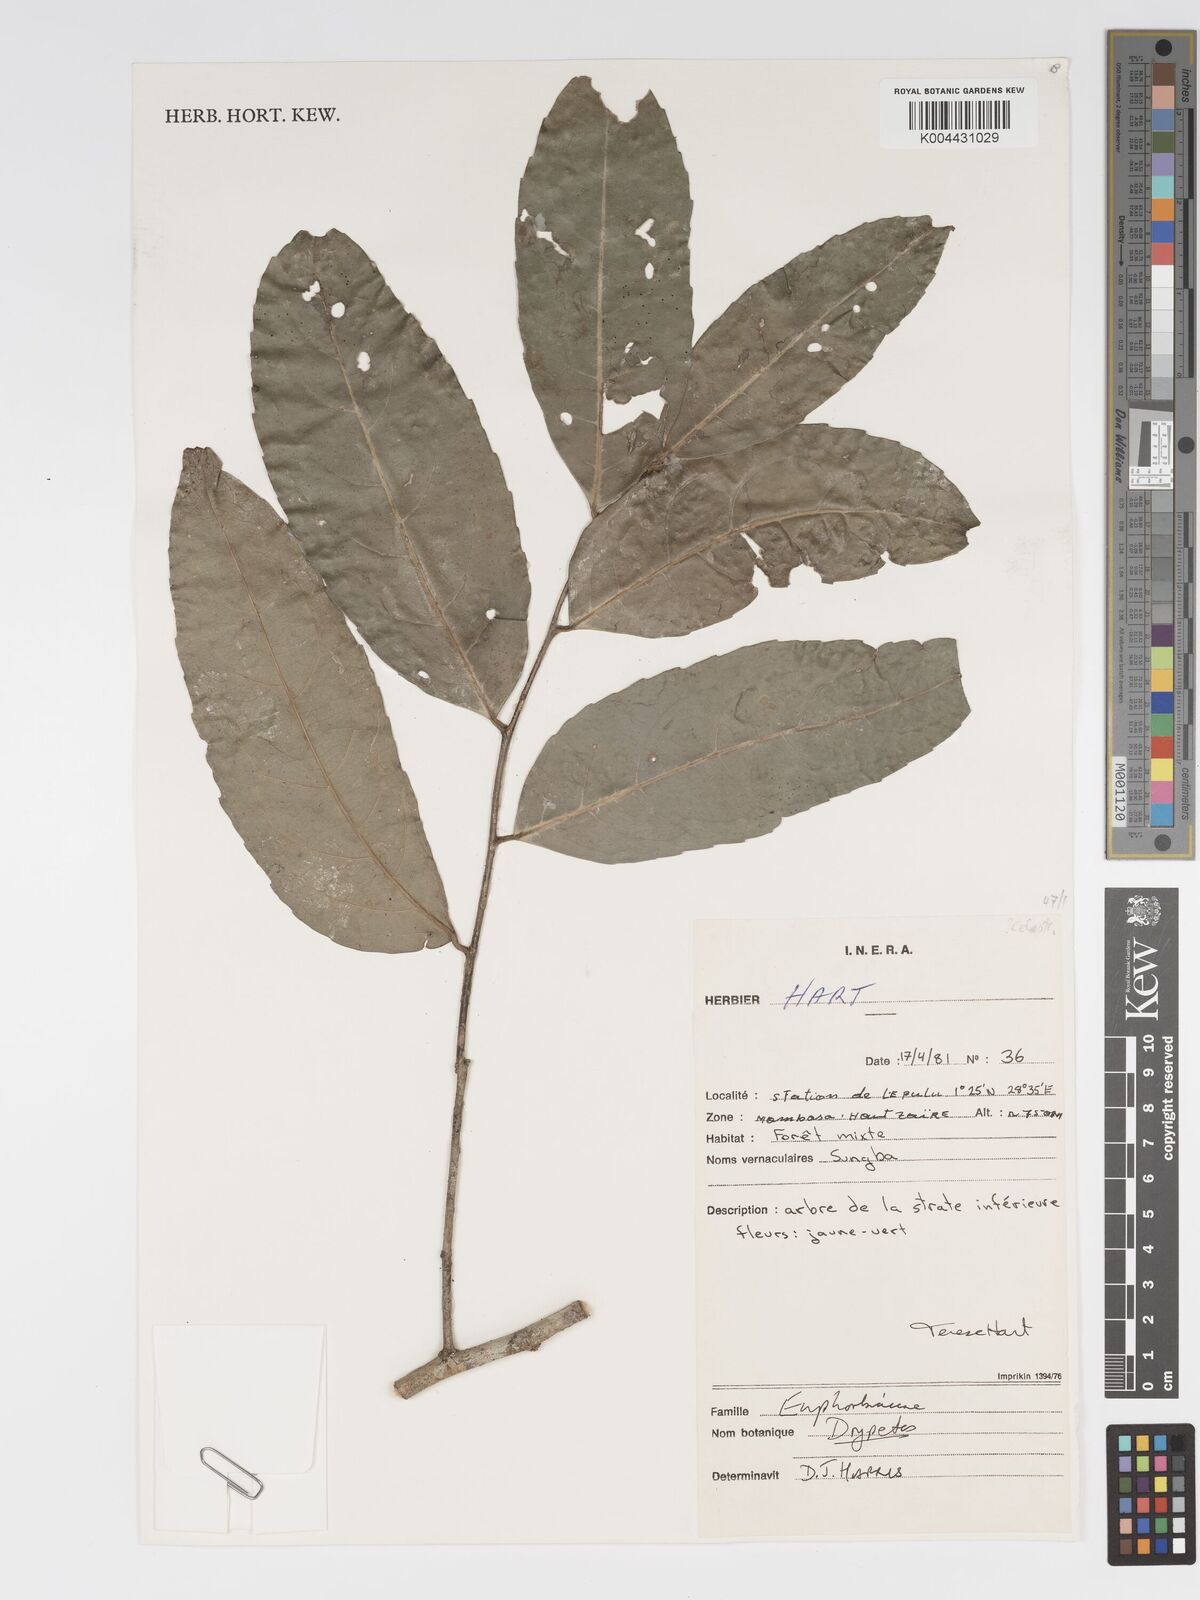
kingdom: Plantae
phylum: Tracheophyta
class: Magnoliopsida
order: Malpighiales
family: Putranjivaceae
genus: Drypetes
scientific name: Drypetes
